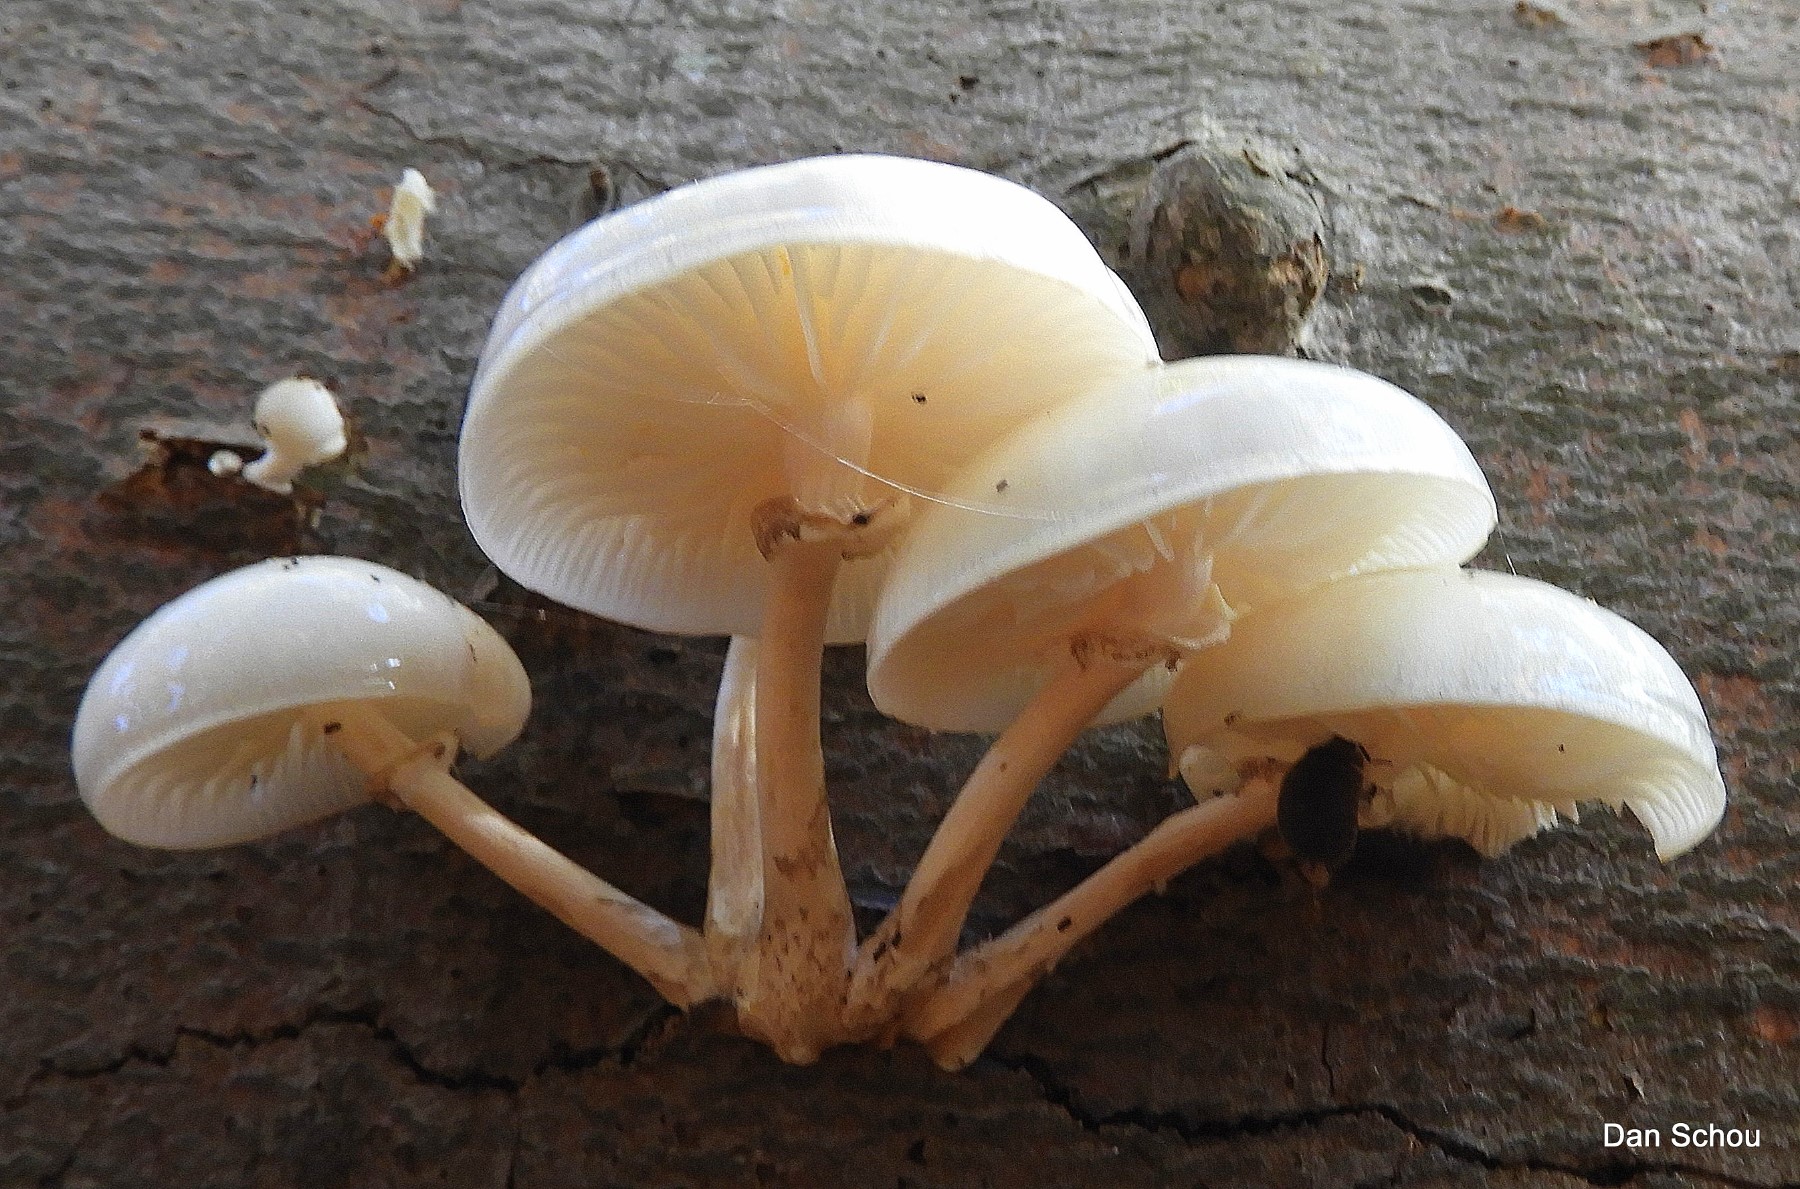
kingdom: Fungi
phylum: Basidiomycota
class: Agaricomycetes
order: Agaricales
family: Physalacriaceae
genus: Mucidula
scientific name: Mucidula mucida
